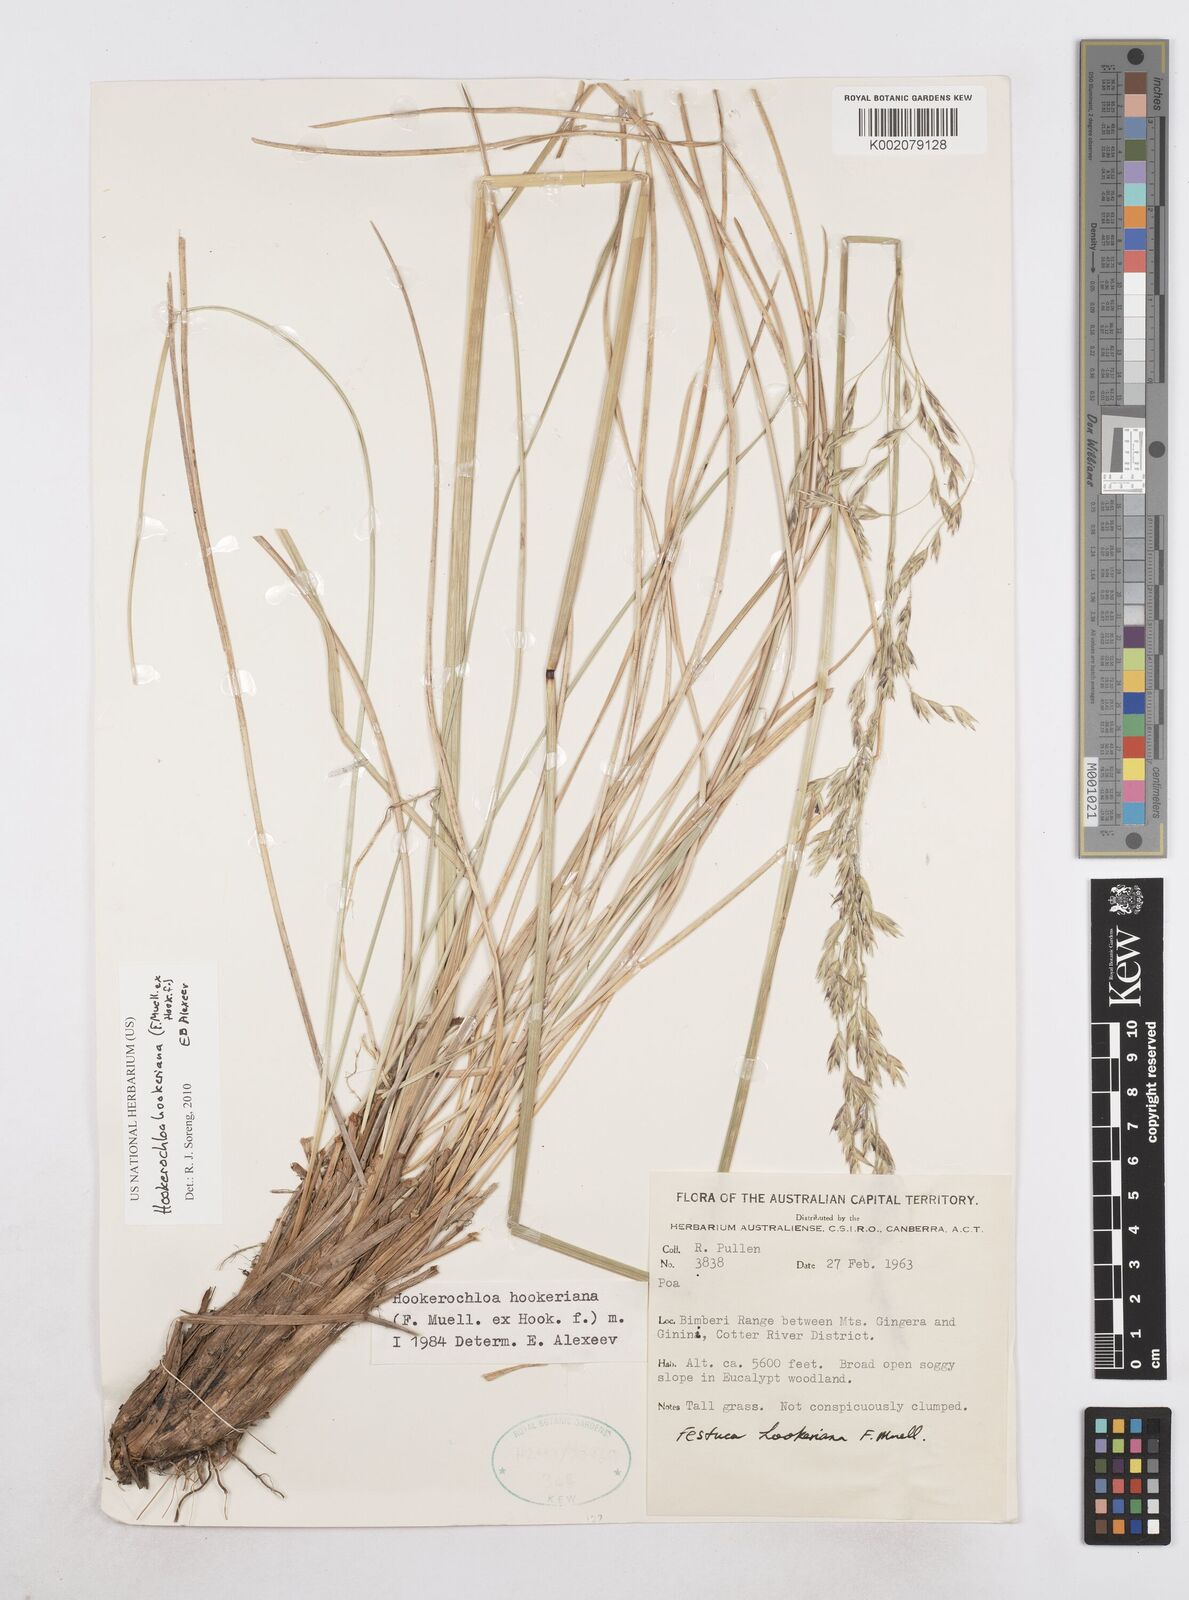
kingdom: Plantae
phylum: Tracheophyta
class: Liliopsida
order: Poales
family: Poaceae
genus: Hookerochloa
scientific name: Hookerochloa hookeriana
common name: Hooker's-fescue
